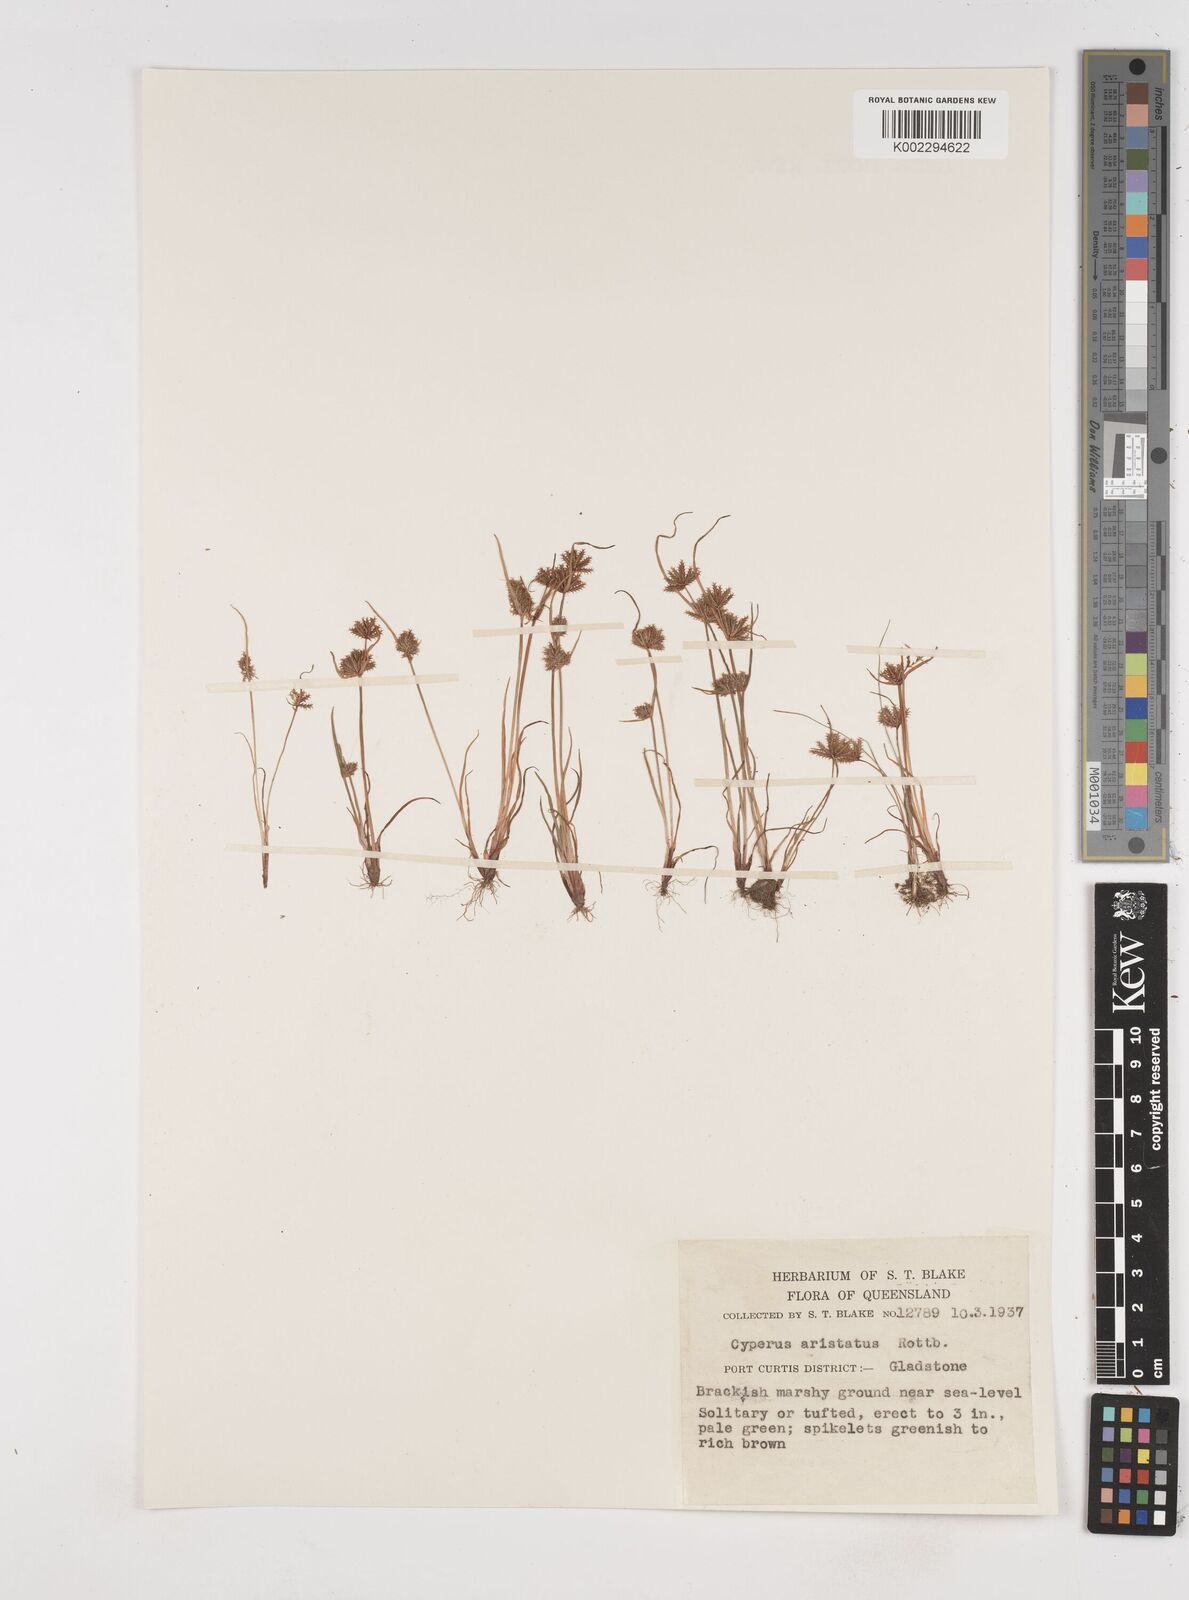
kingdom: Plantae
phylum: Tracheophyta
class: Liliopsida
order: Poales
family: Cyperaceae
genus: Cyperus
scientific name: Cyperus squarrosus
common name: Awned cyperus
